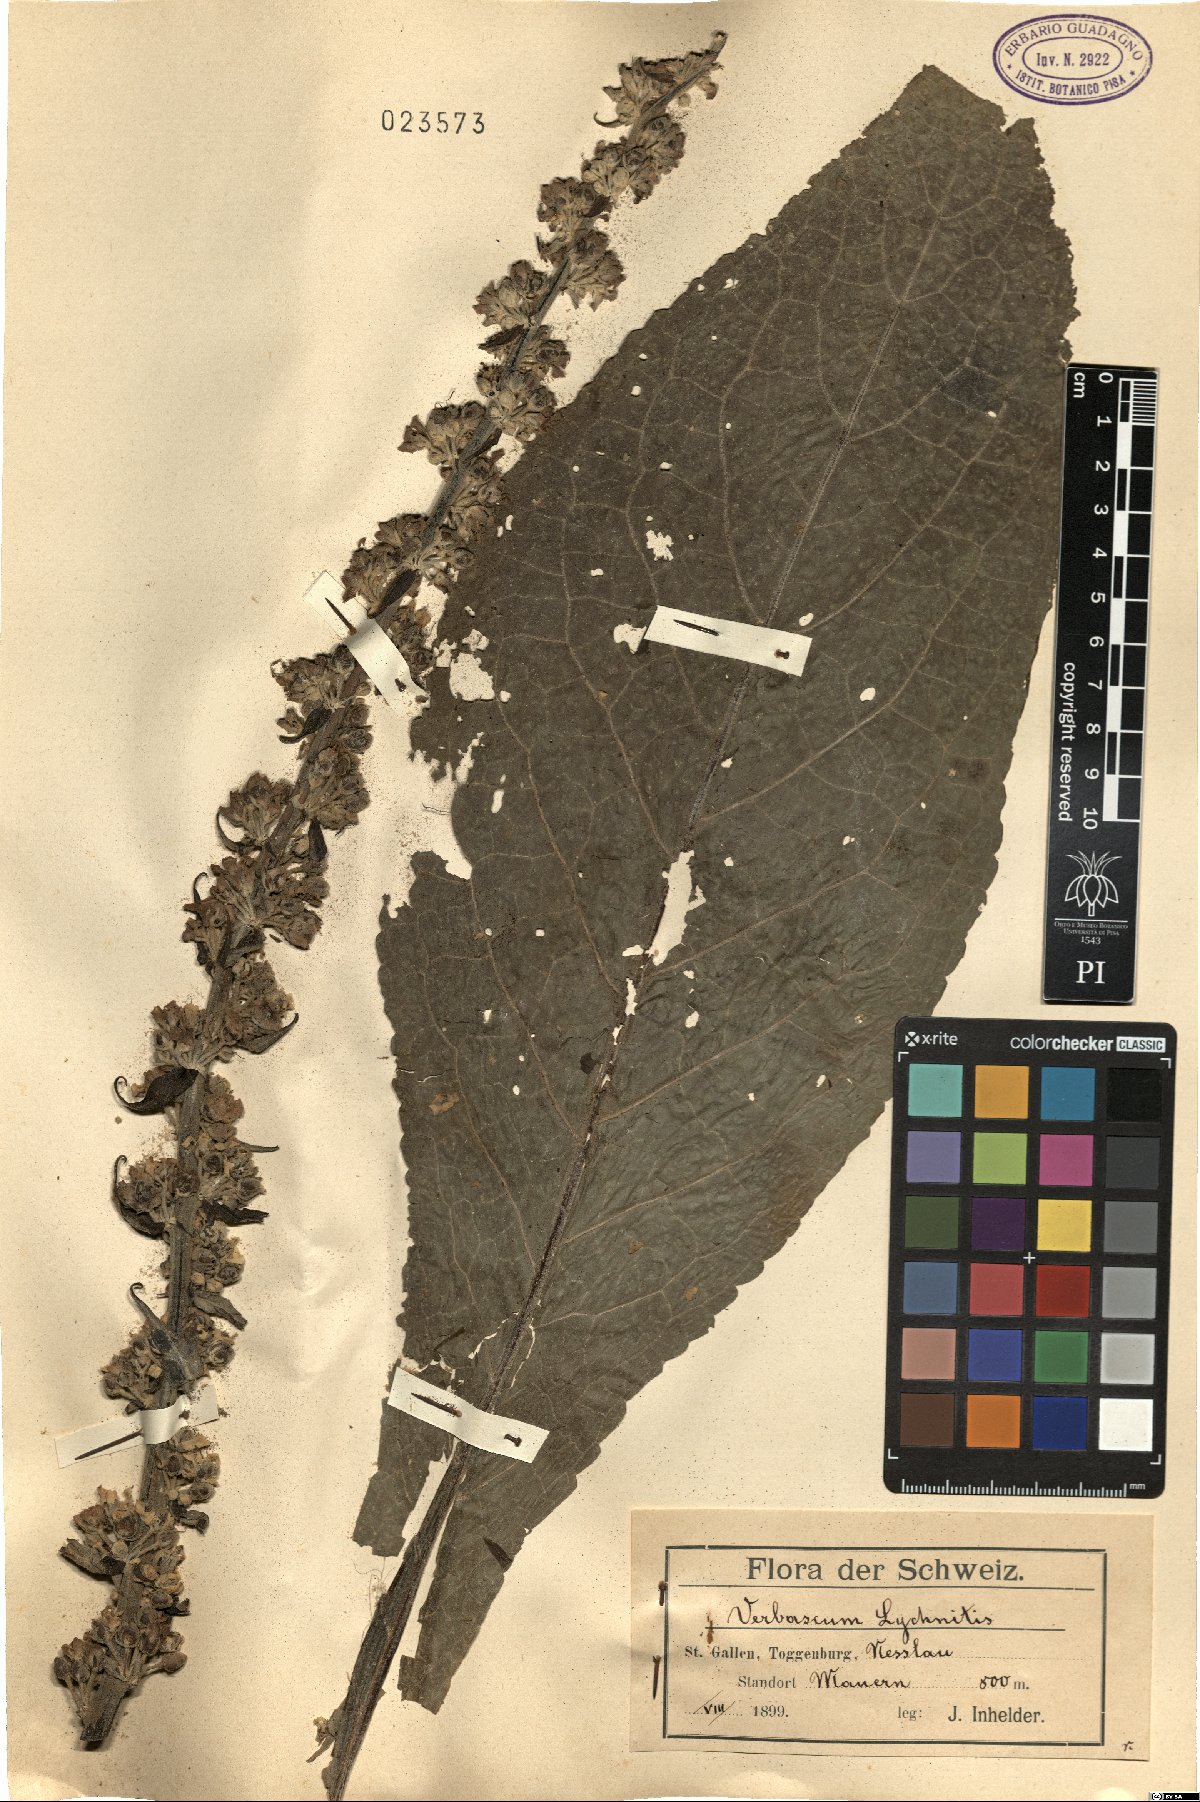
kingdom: Plantae
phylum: Tracheophyta
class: Magnoliopsida
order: Lamiales
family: Scrophulariaceae
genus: Verbascum
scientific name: Verbascum lychnitis
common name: White mullein
